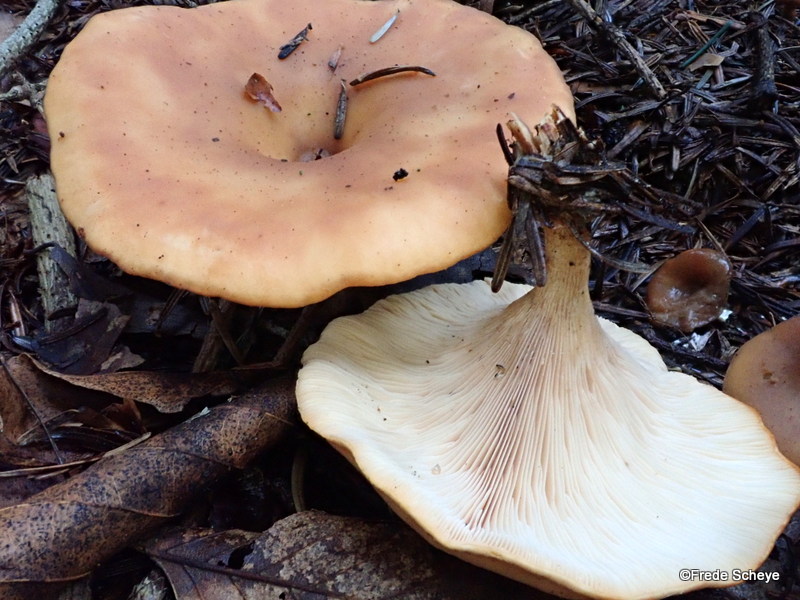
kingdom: Fungi
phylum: Basidiomycota
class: Agaricomycetes
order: Agaricales
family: Tricholomataceae
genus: Paralepista
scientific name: Paralepista flaccida
